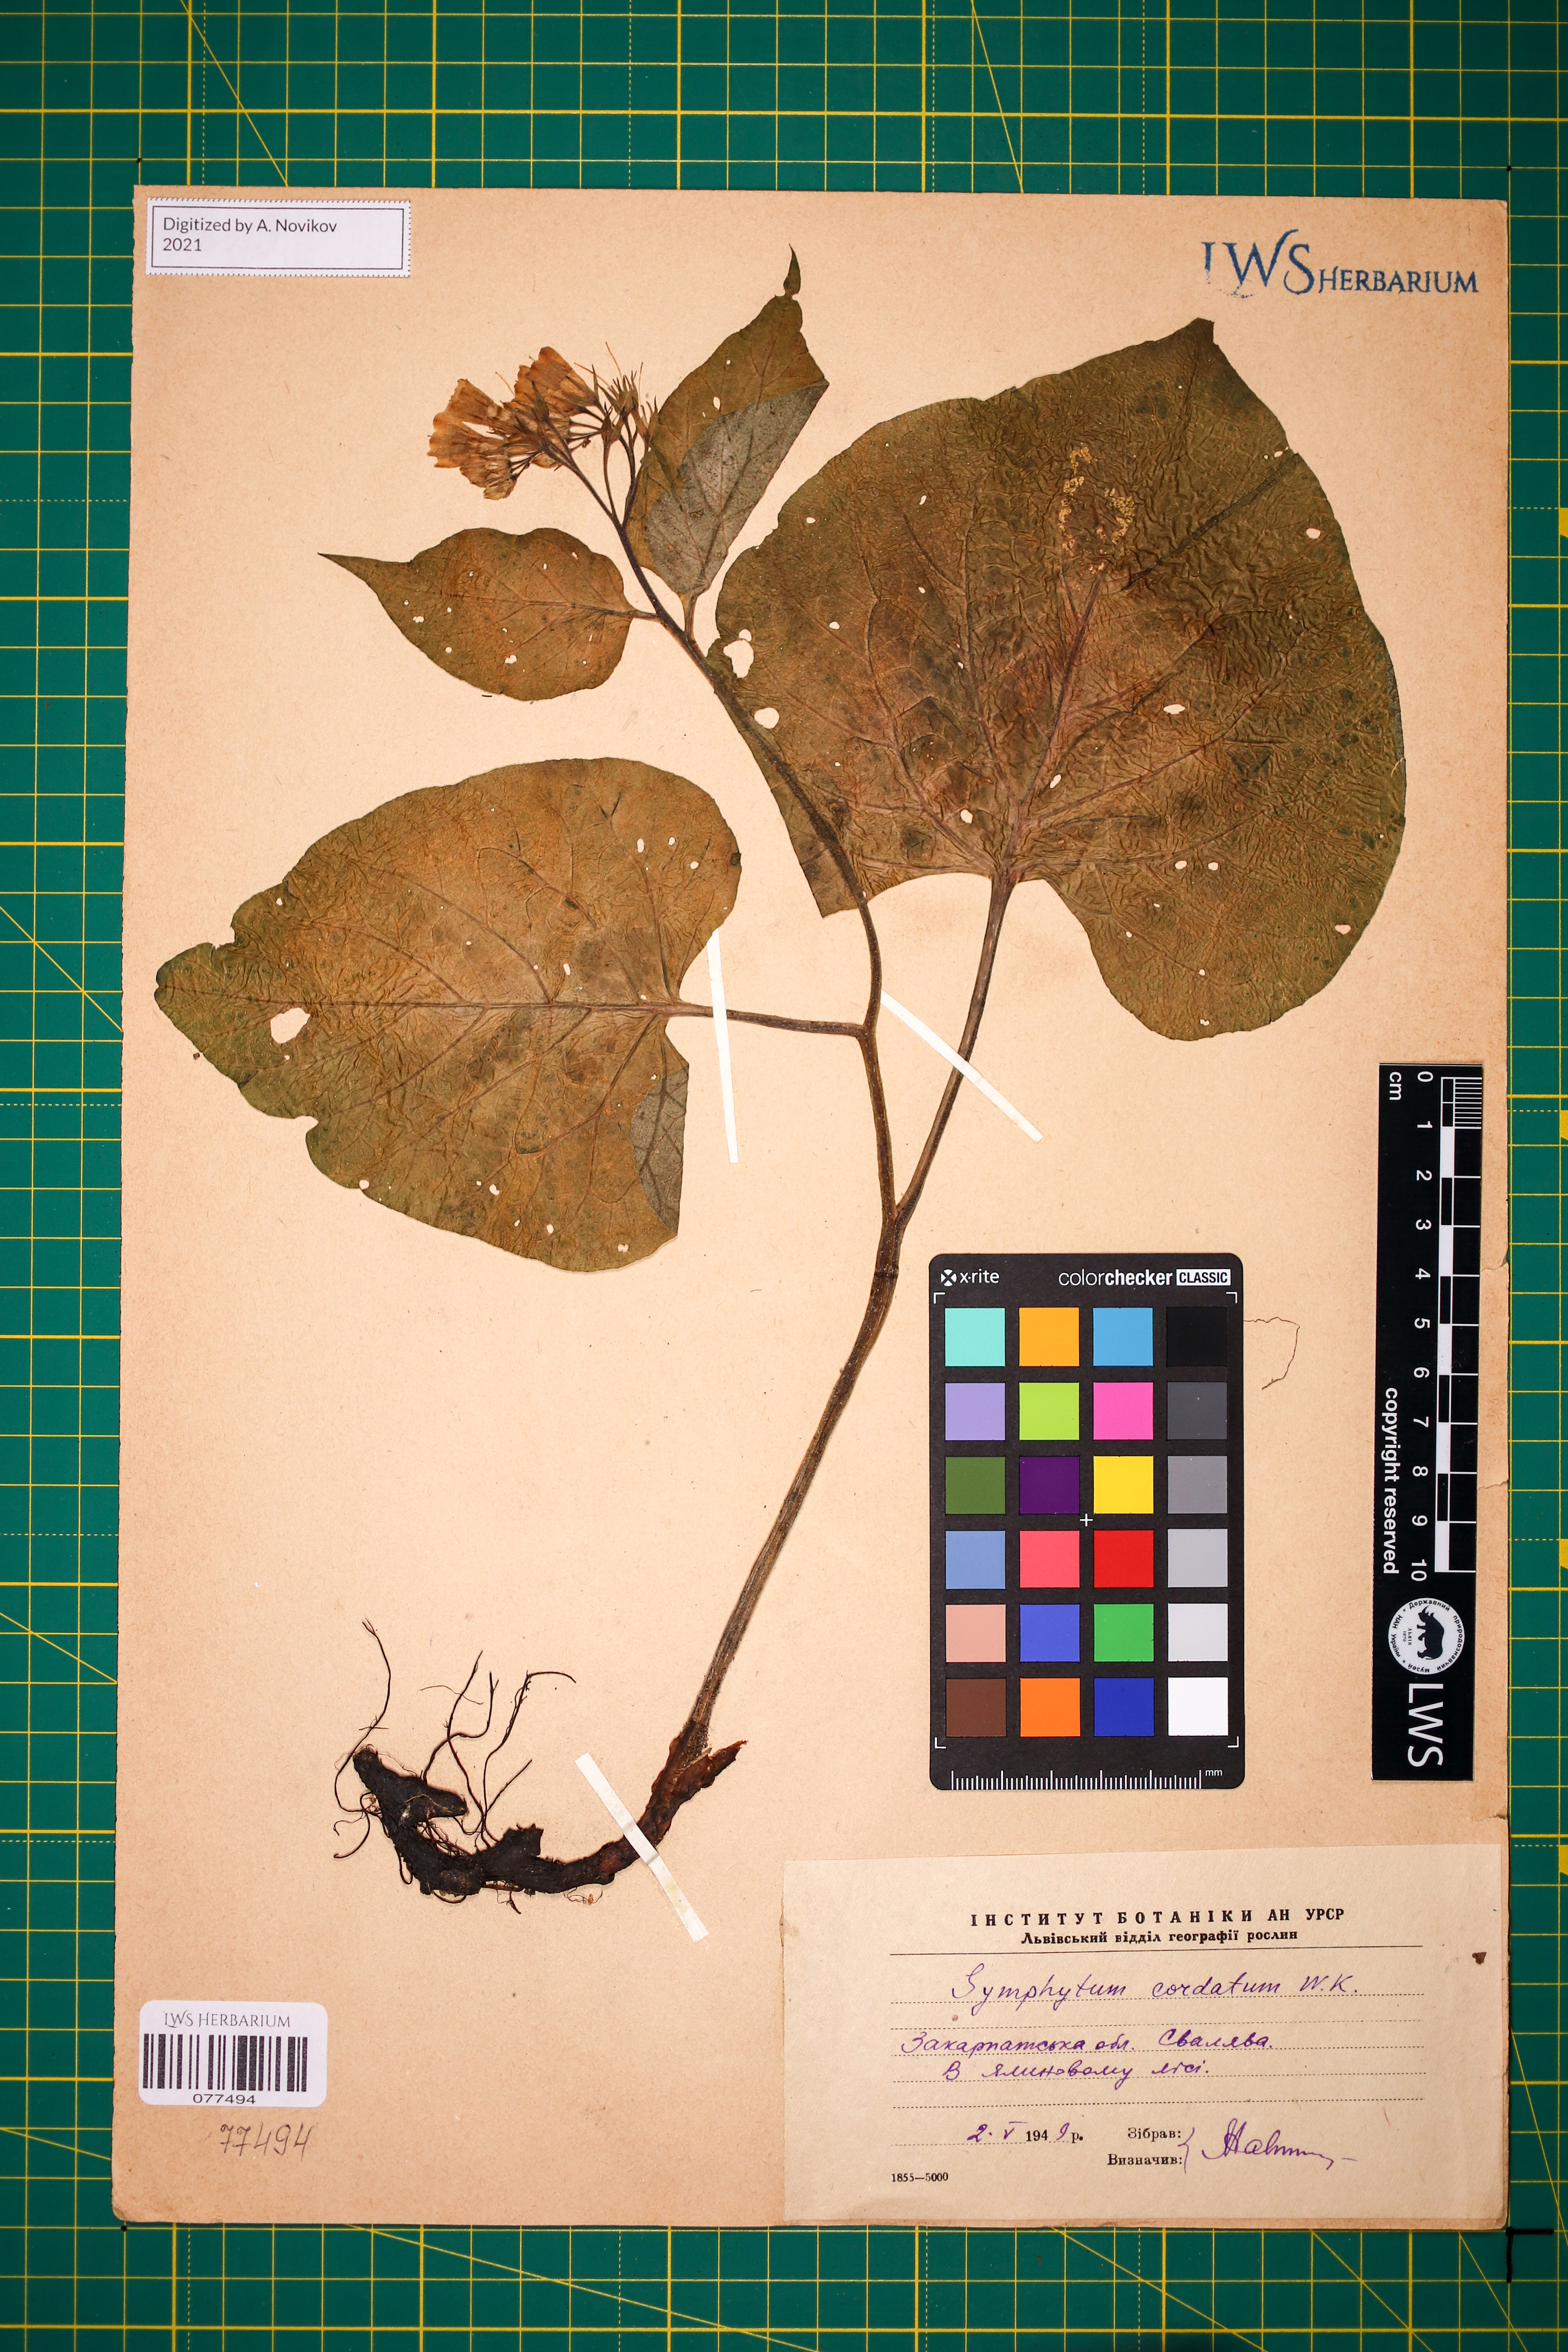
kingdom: Plantae
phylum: Tracheophyta
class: Magnoliopsida
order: Boraginales
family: Boraginaceae
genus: Symphytum
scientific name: Symphytum cordatum
